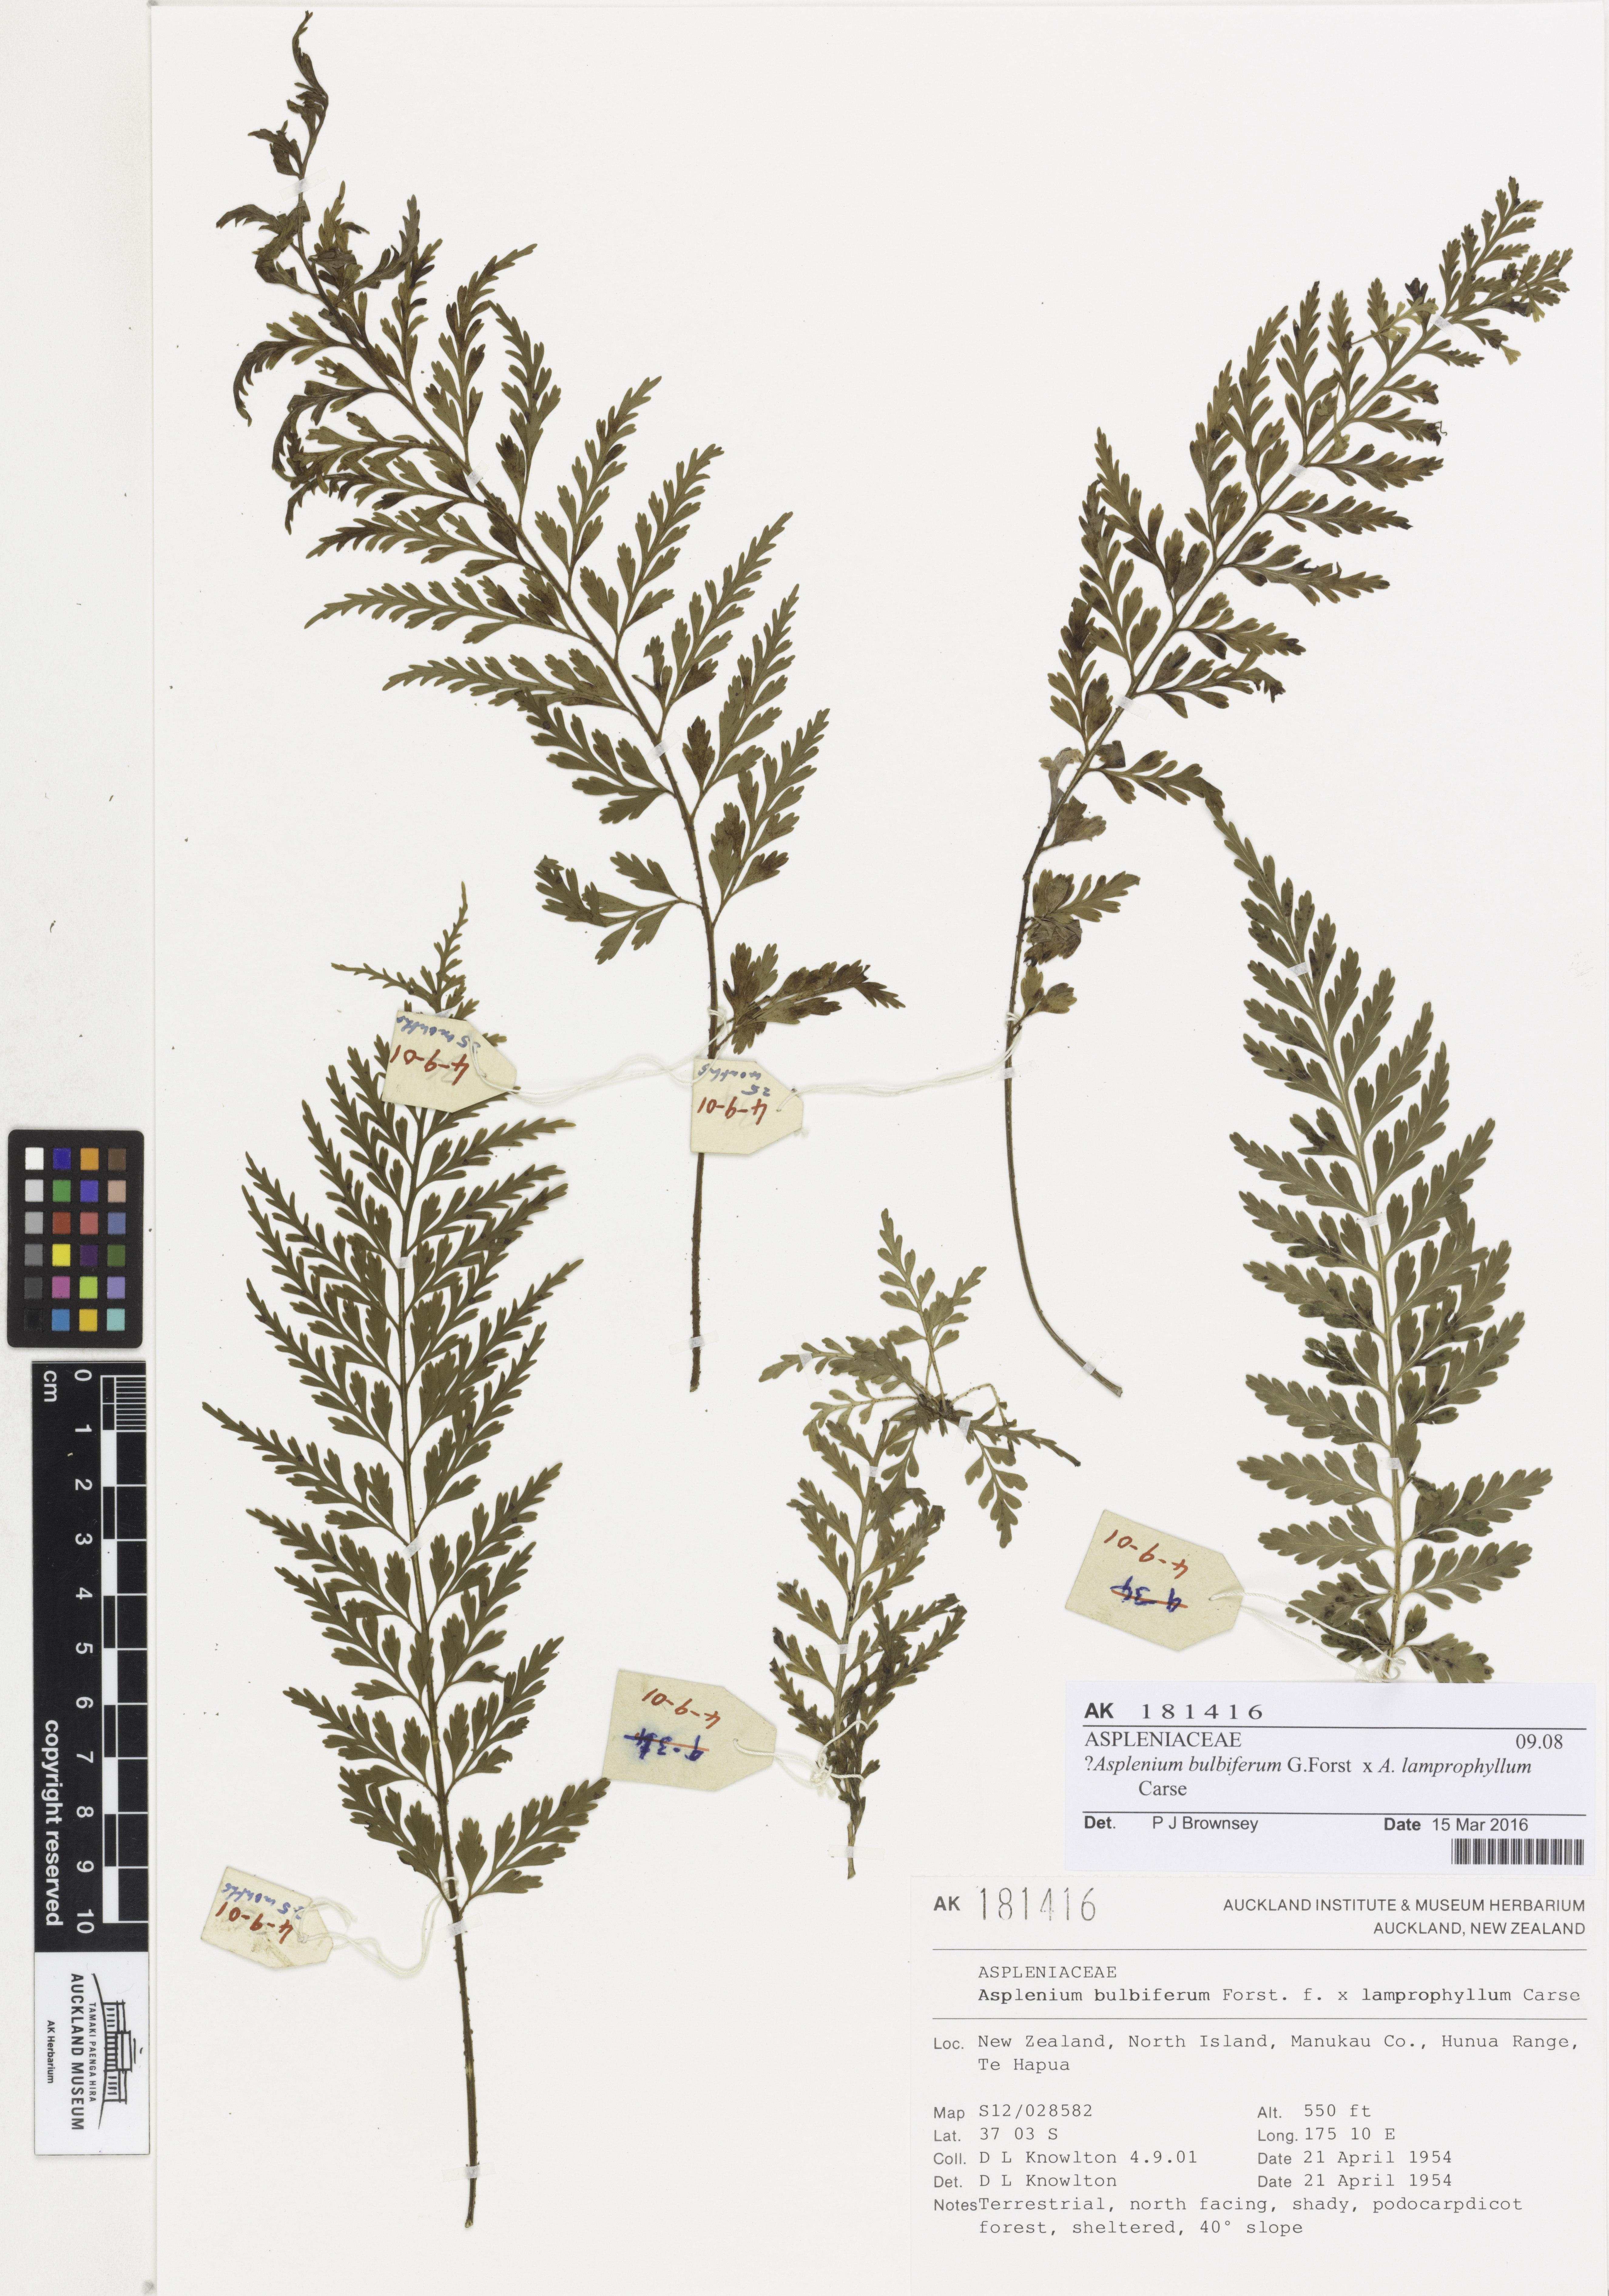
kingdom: Plantae
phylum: Tracheophyta
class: Polypodiopsida
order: Polypodiales
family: Aspleniaceae
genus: Asplenium
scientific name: Asplenium
